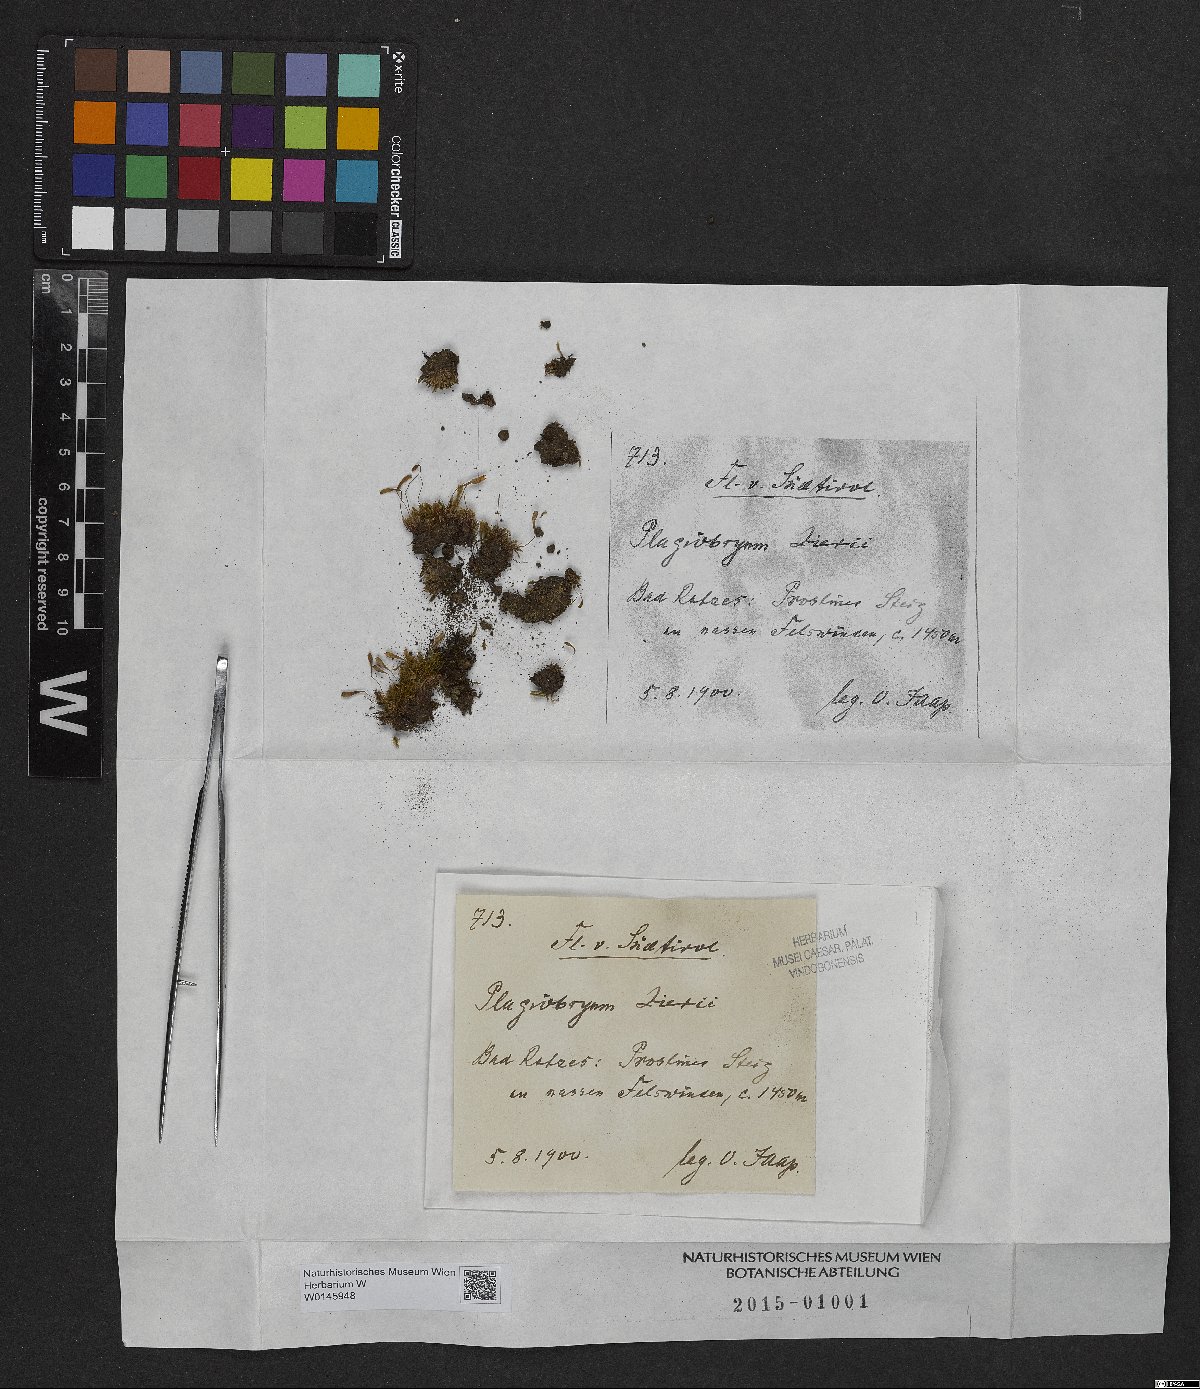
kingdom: Plantae
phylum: Bryophyta
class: Bryopsida
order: Bryales
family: Bryaceae
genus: Plagiobryum
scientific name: Plagiobryum zieri
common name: Zier's hump moss
